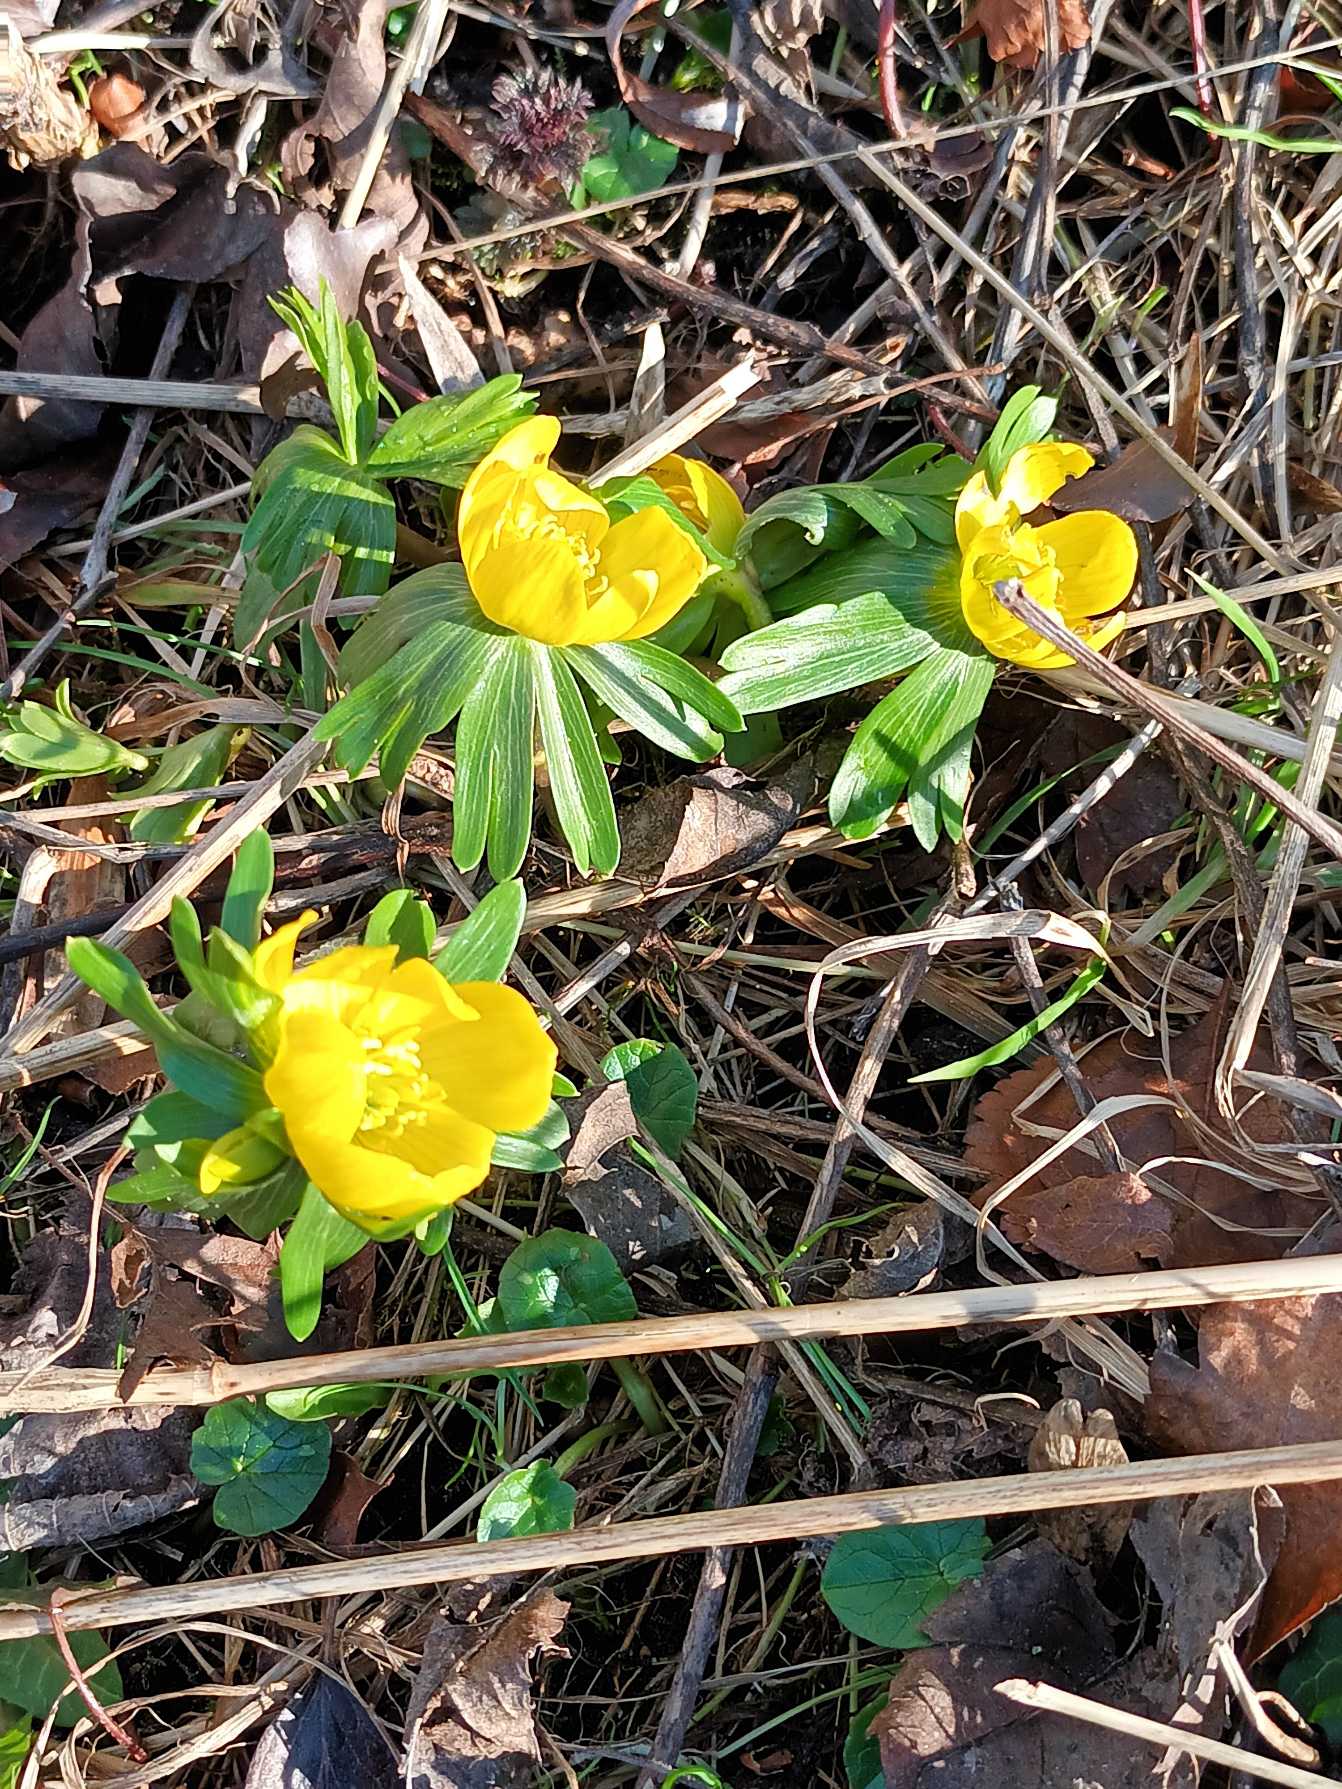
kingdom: Plantae
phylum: Tracheophyta
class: Magnoliopsida
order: Ranunculales
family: Ranunculaceae
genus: Eranthis
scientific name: Eranthis hyemalis
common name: Erantis
